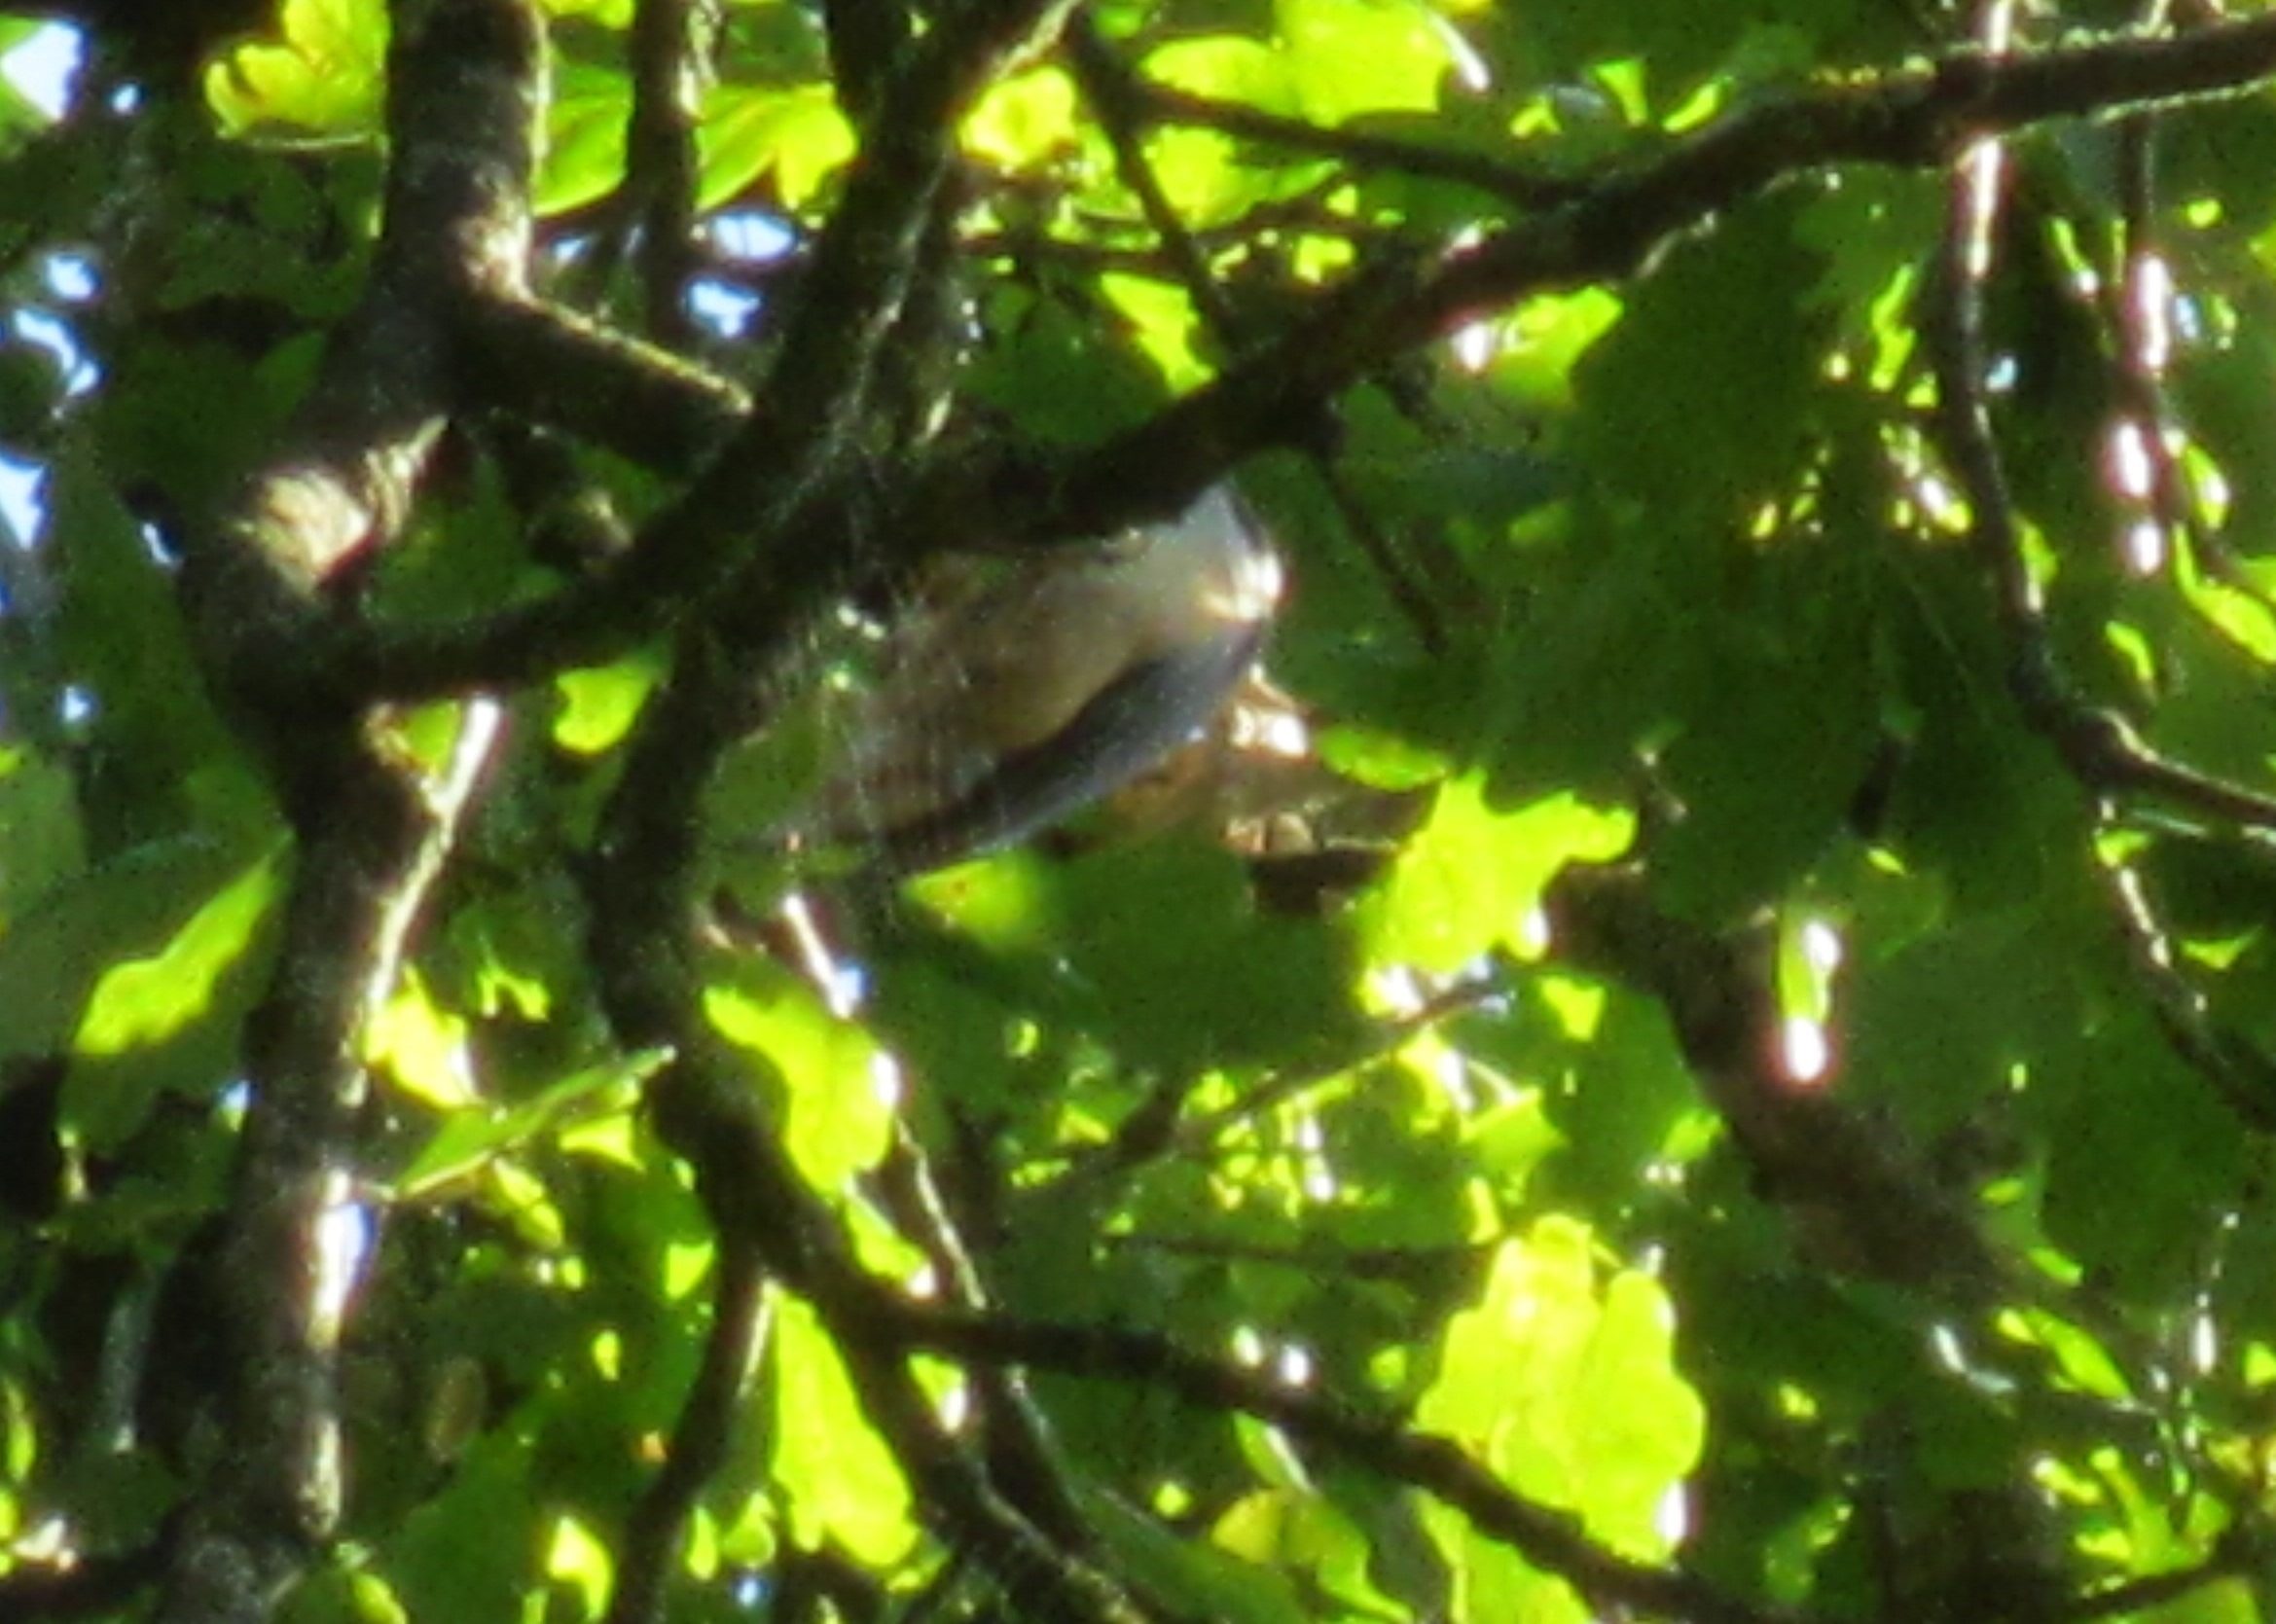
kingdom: Animalia
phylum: Chordata
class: Aves
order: Passeriformes
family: Sittidae
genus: Sitta
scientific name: Sitta europaea
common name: Spætmejse
